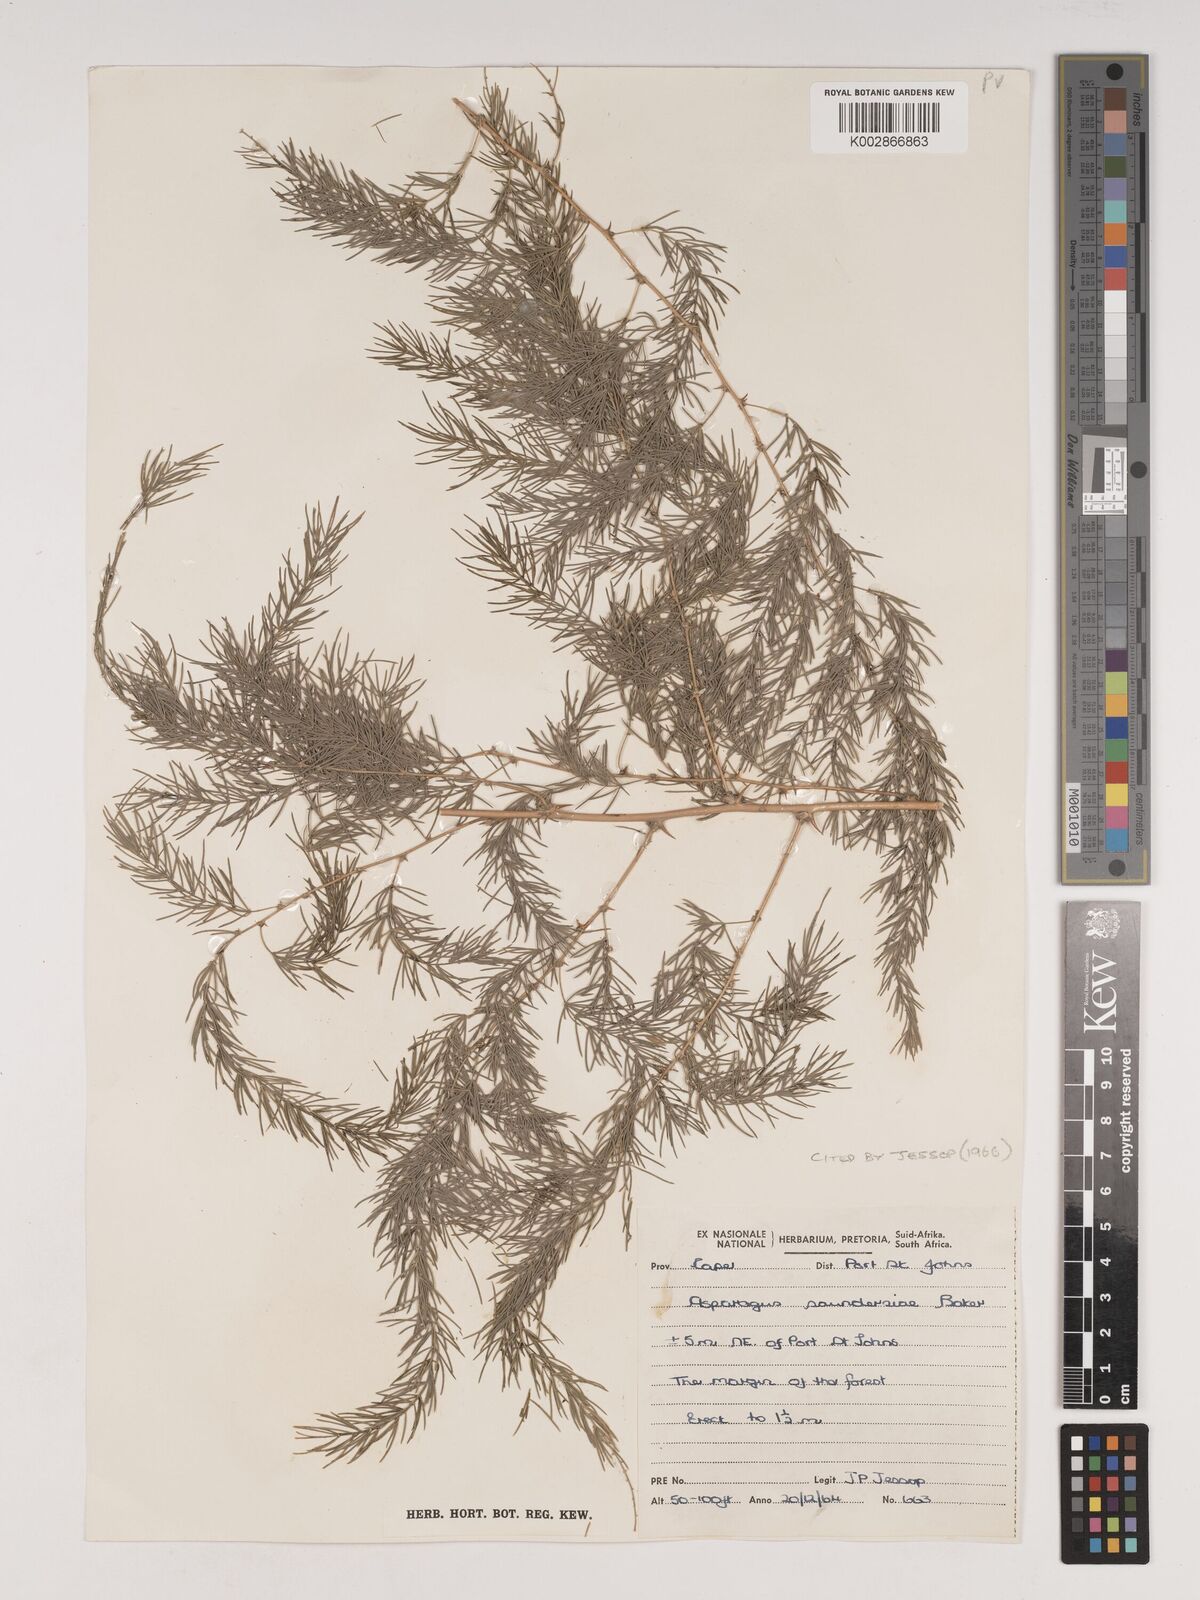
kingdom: Plantae
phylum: Tracheophyta
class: Liliopsida
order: Asparagales
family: Asparagaceae
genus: Asparagus
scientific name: Asparagus saundersiae
